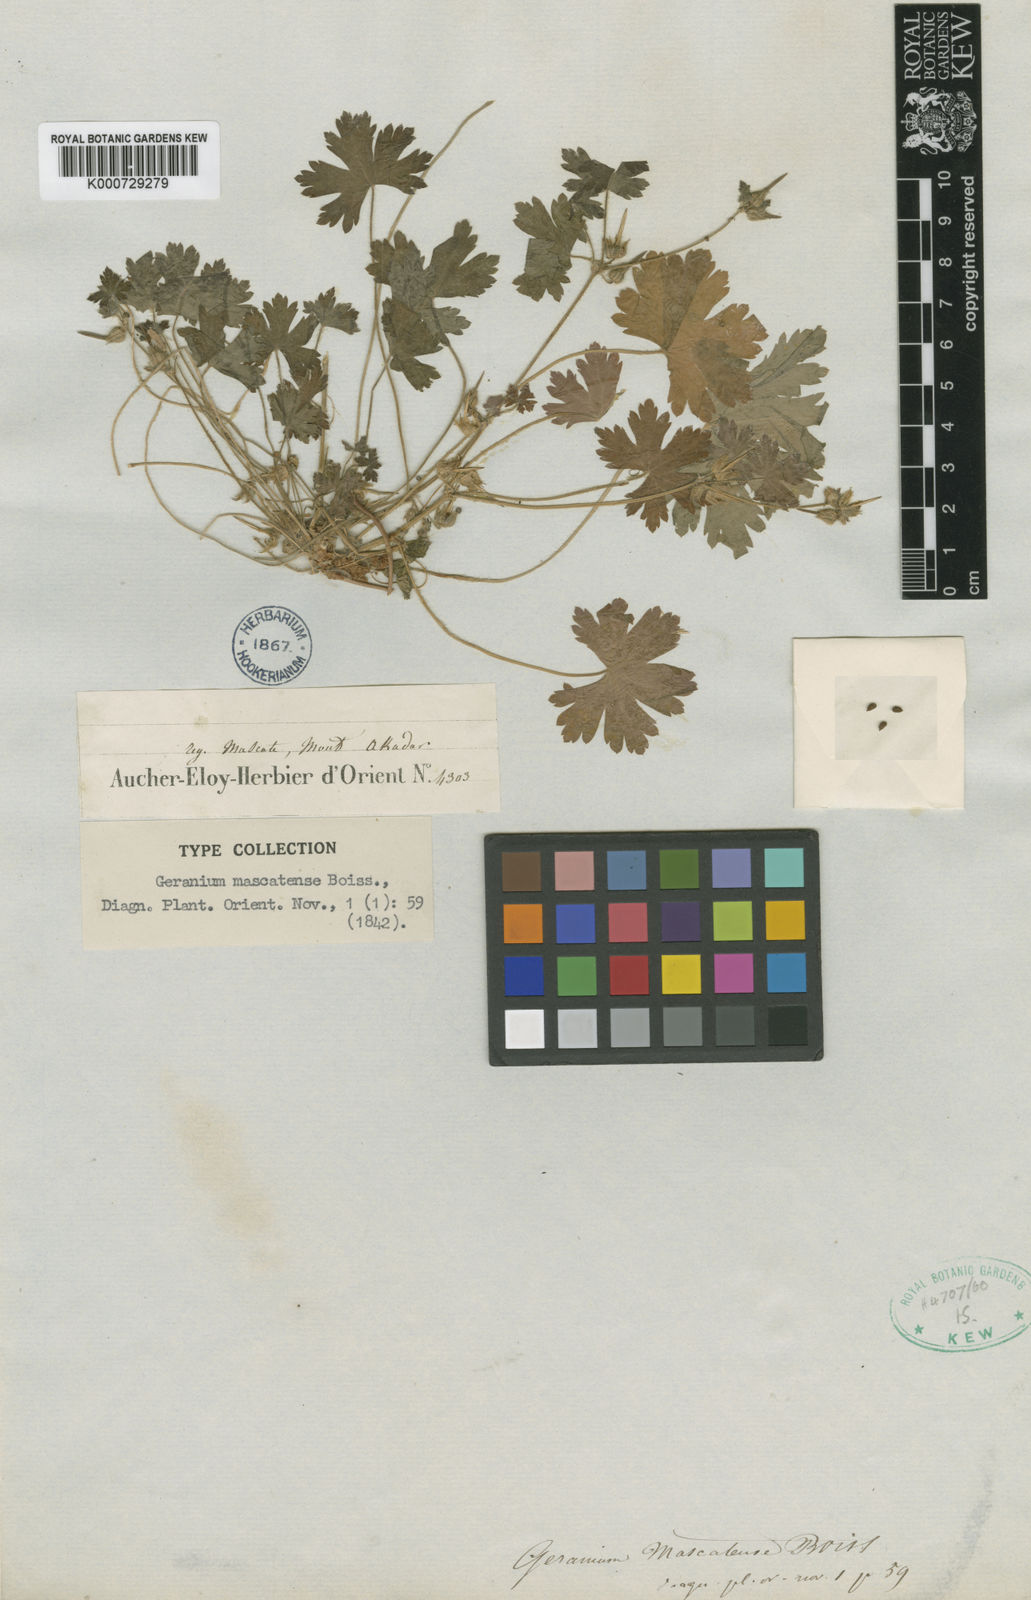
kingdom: Plantae
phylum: Tracheophyta
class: Magnoliopsida
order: Geraniales
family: Geraniaceae
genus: Geranium
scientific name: Geranium mascatense
